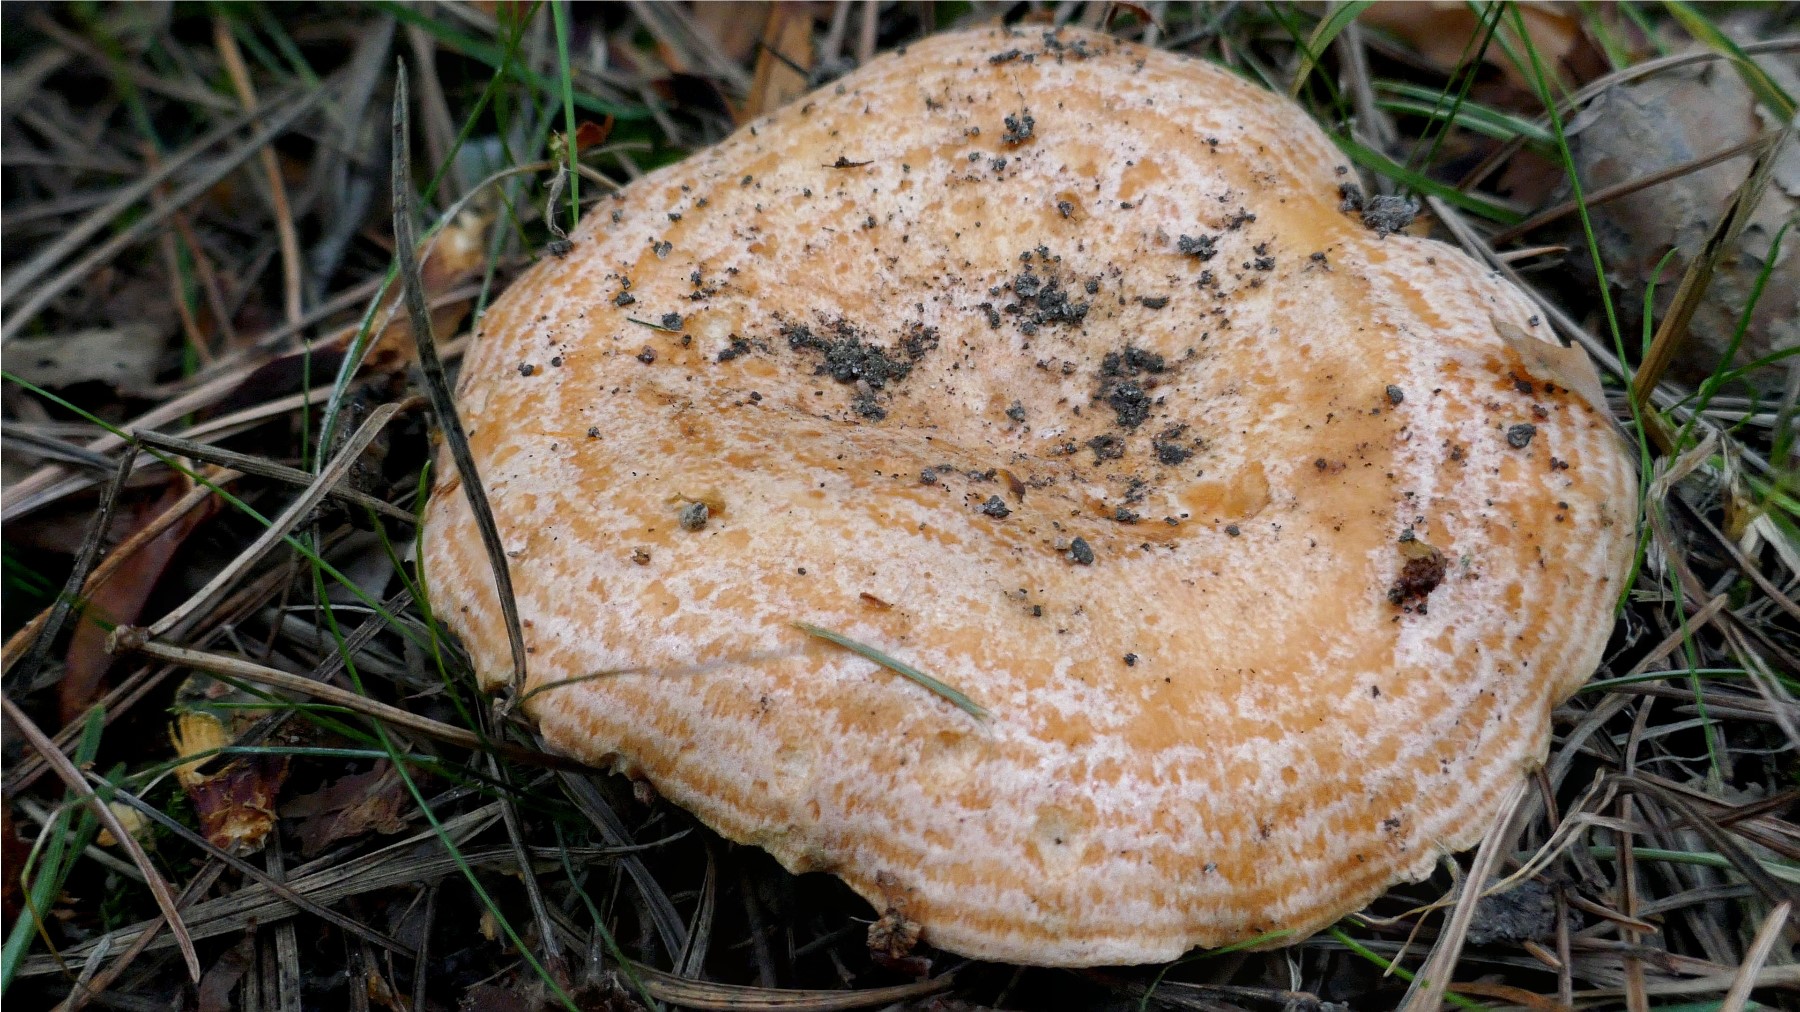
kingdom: Fungi
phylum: Basidiomycota
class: Agaricomycetes
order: Russulales
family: Russulaceae
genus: Lactarius
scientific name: Lactarius deliciosus
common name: velsmagende mælkehat
